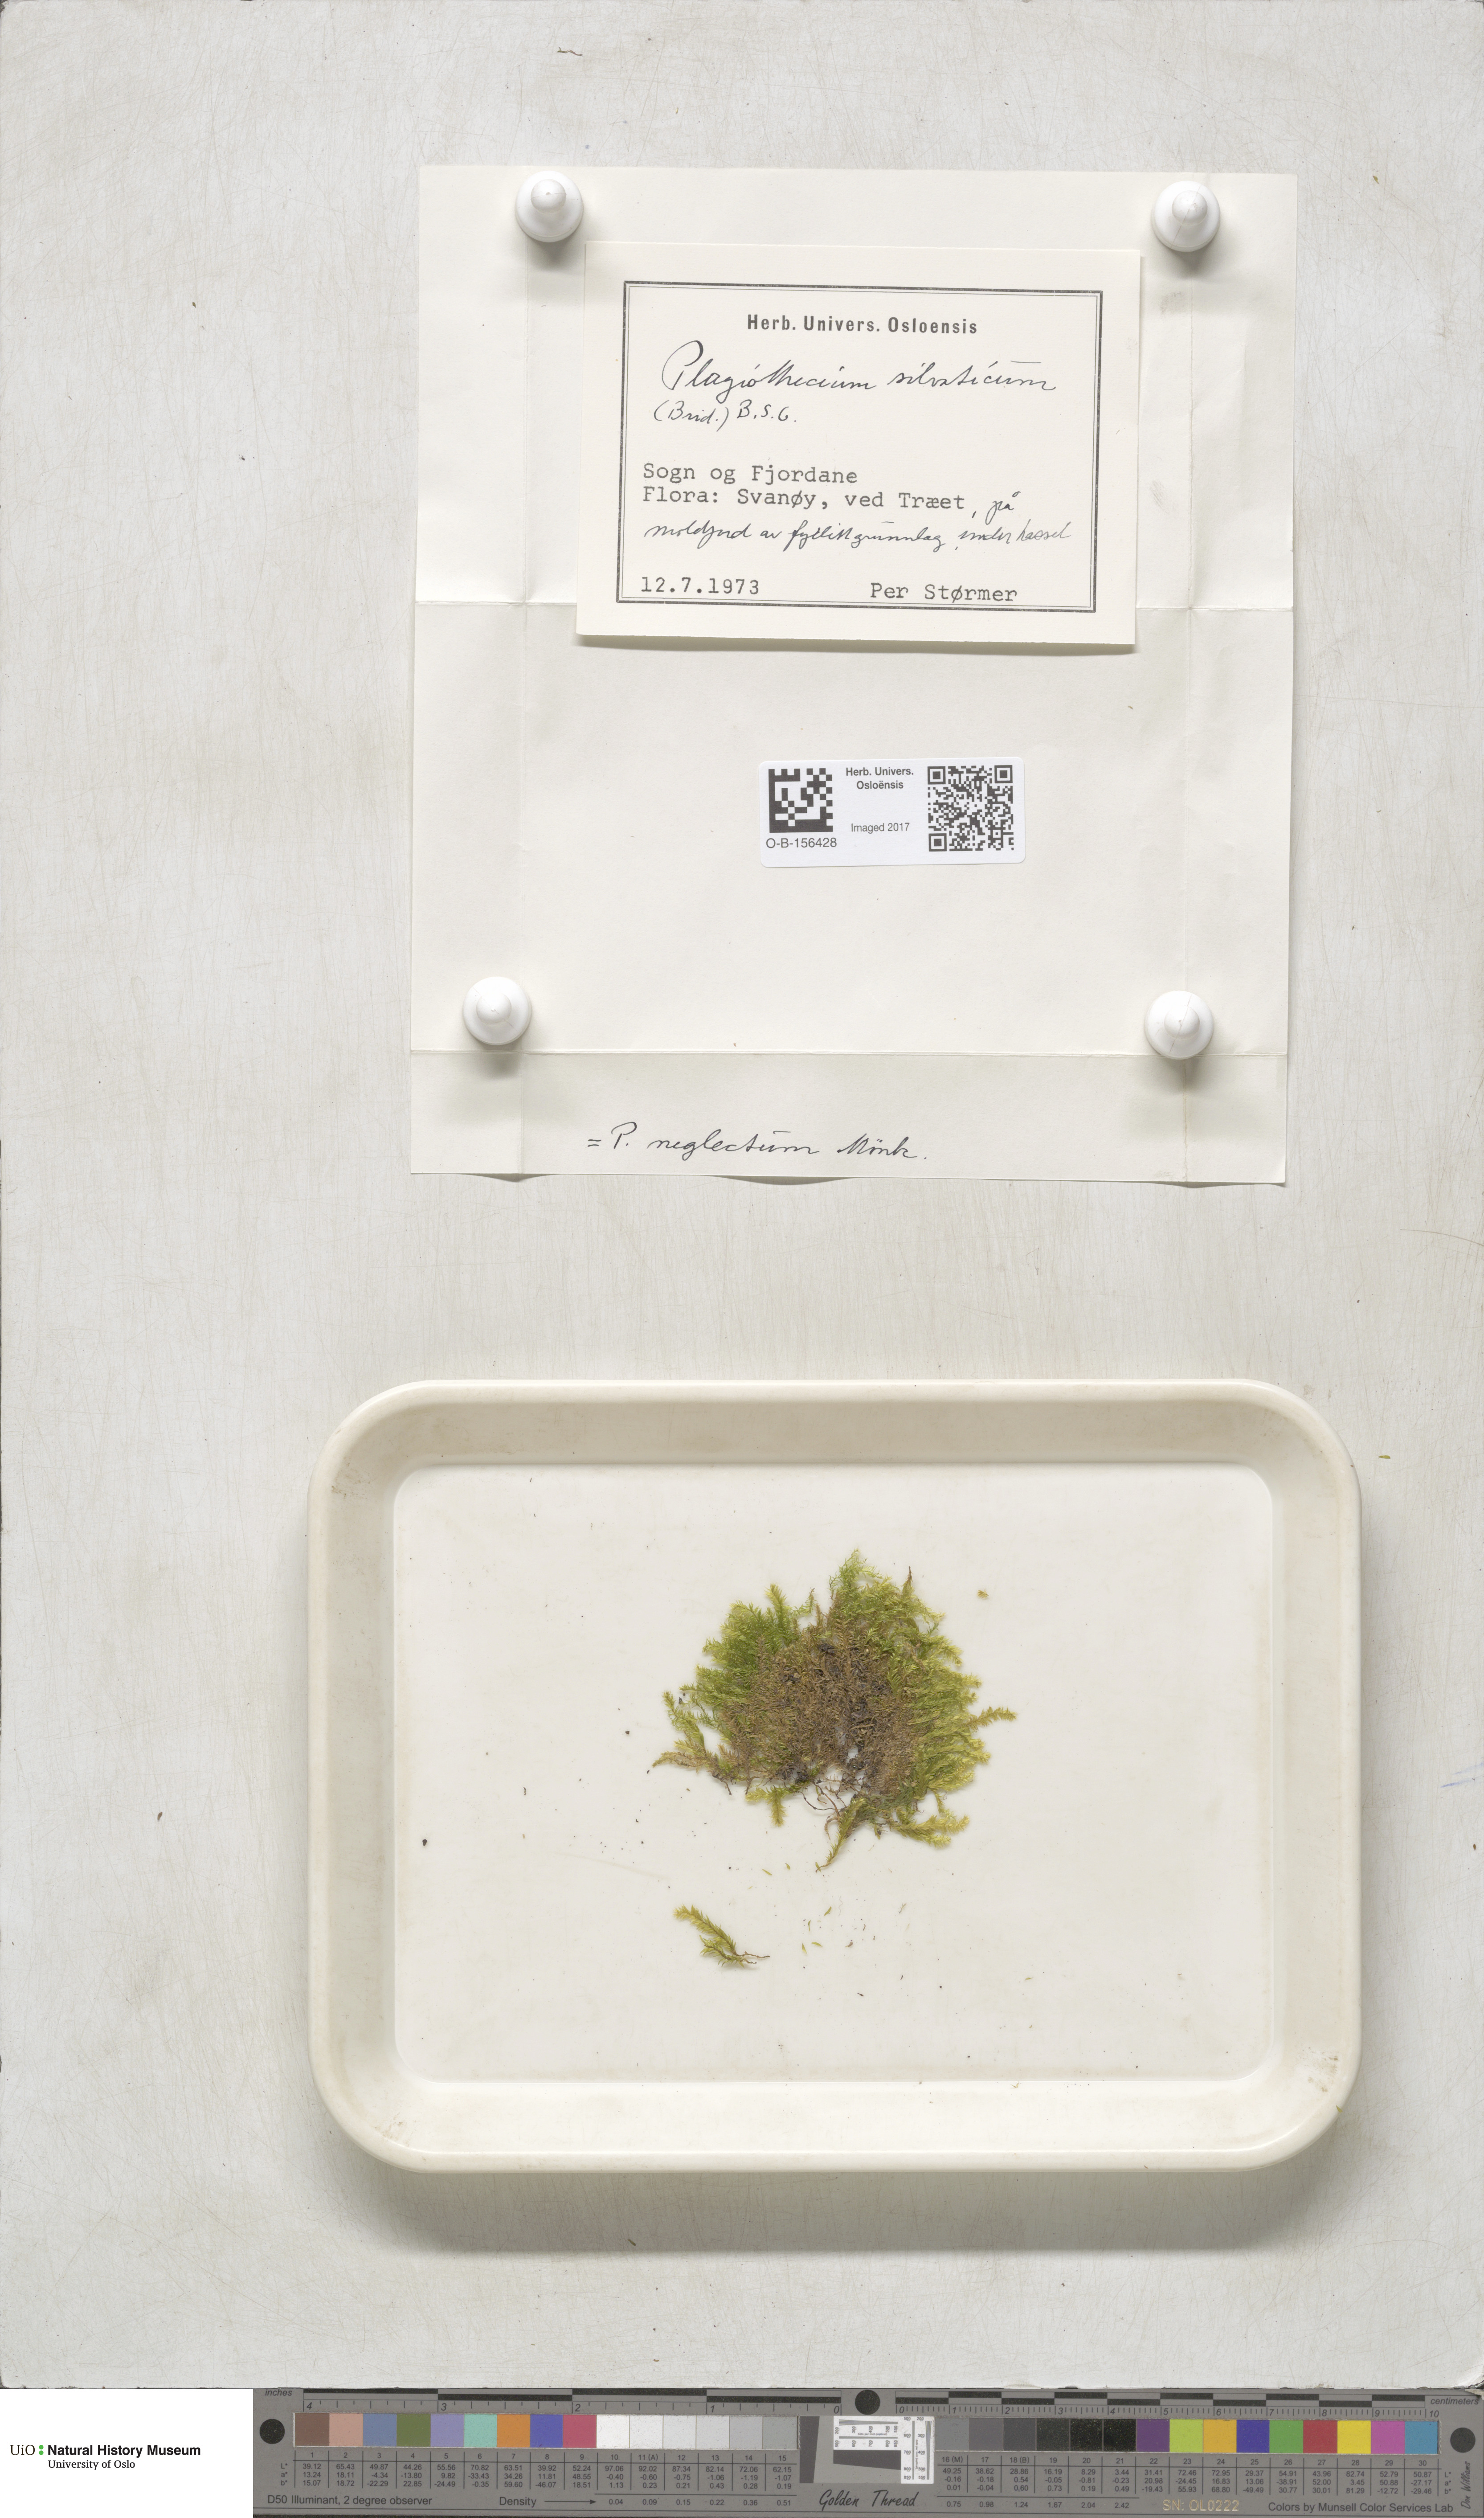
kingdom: Plantae
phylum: Bryophyta
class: Bryopsida
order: Hypnales
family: Plagiotheciaceae
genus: Plagiothecium
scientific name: Plagiothecium nemorale
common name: Woodsy silk-moss
